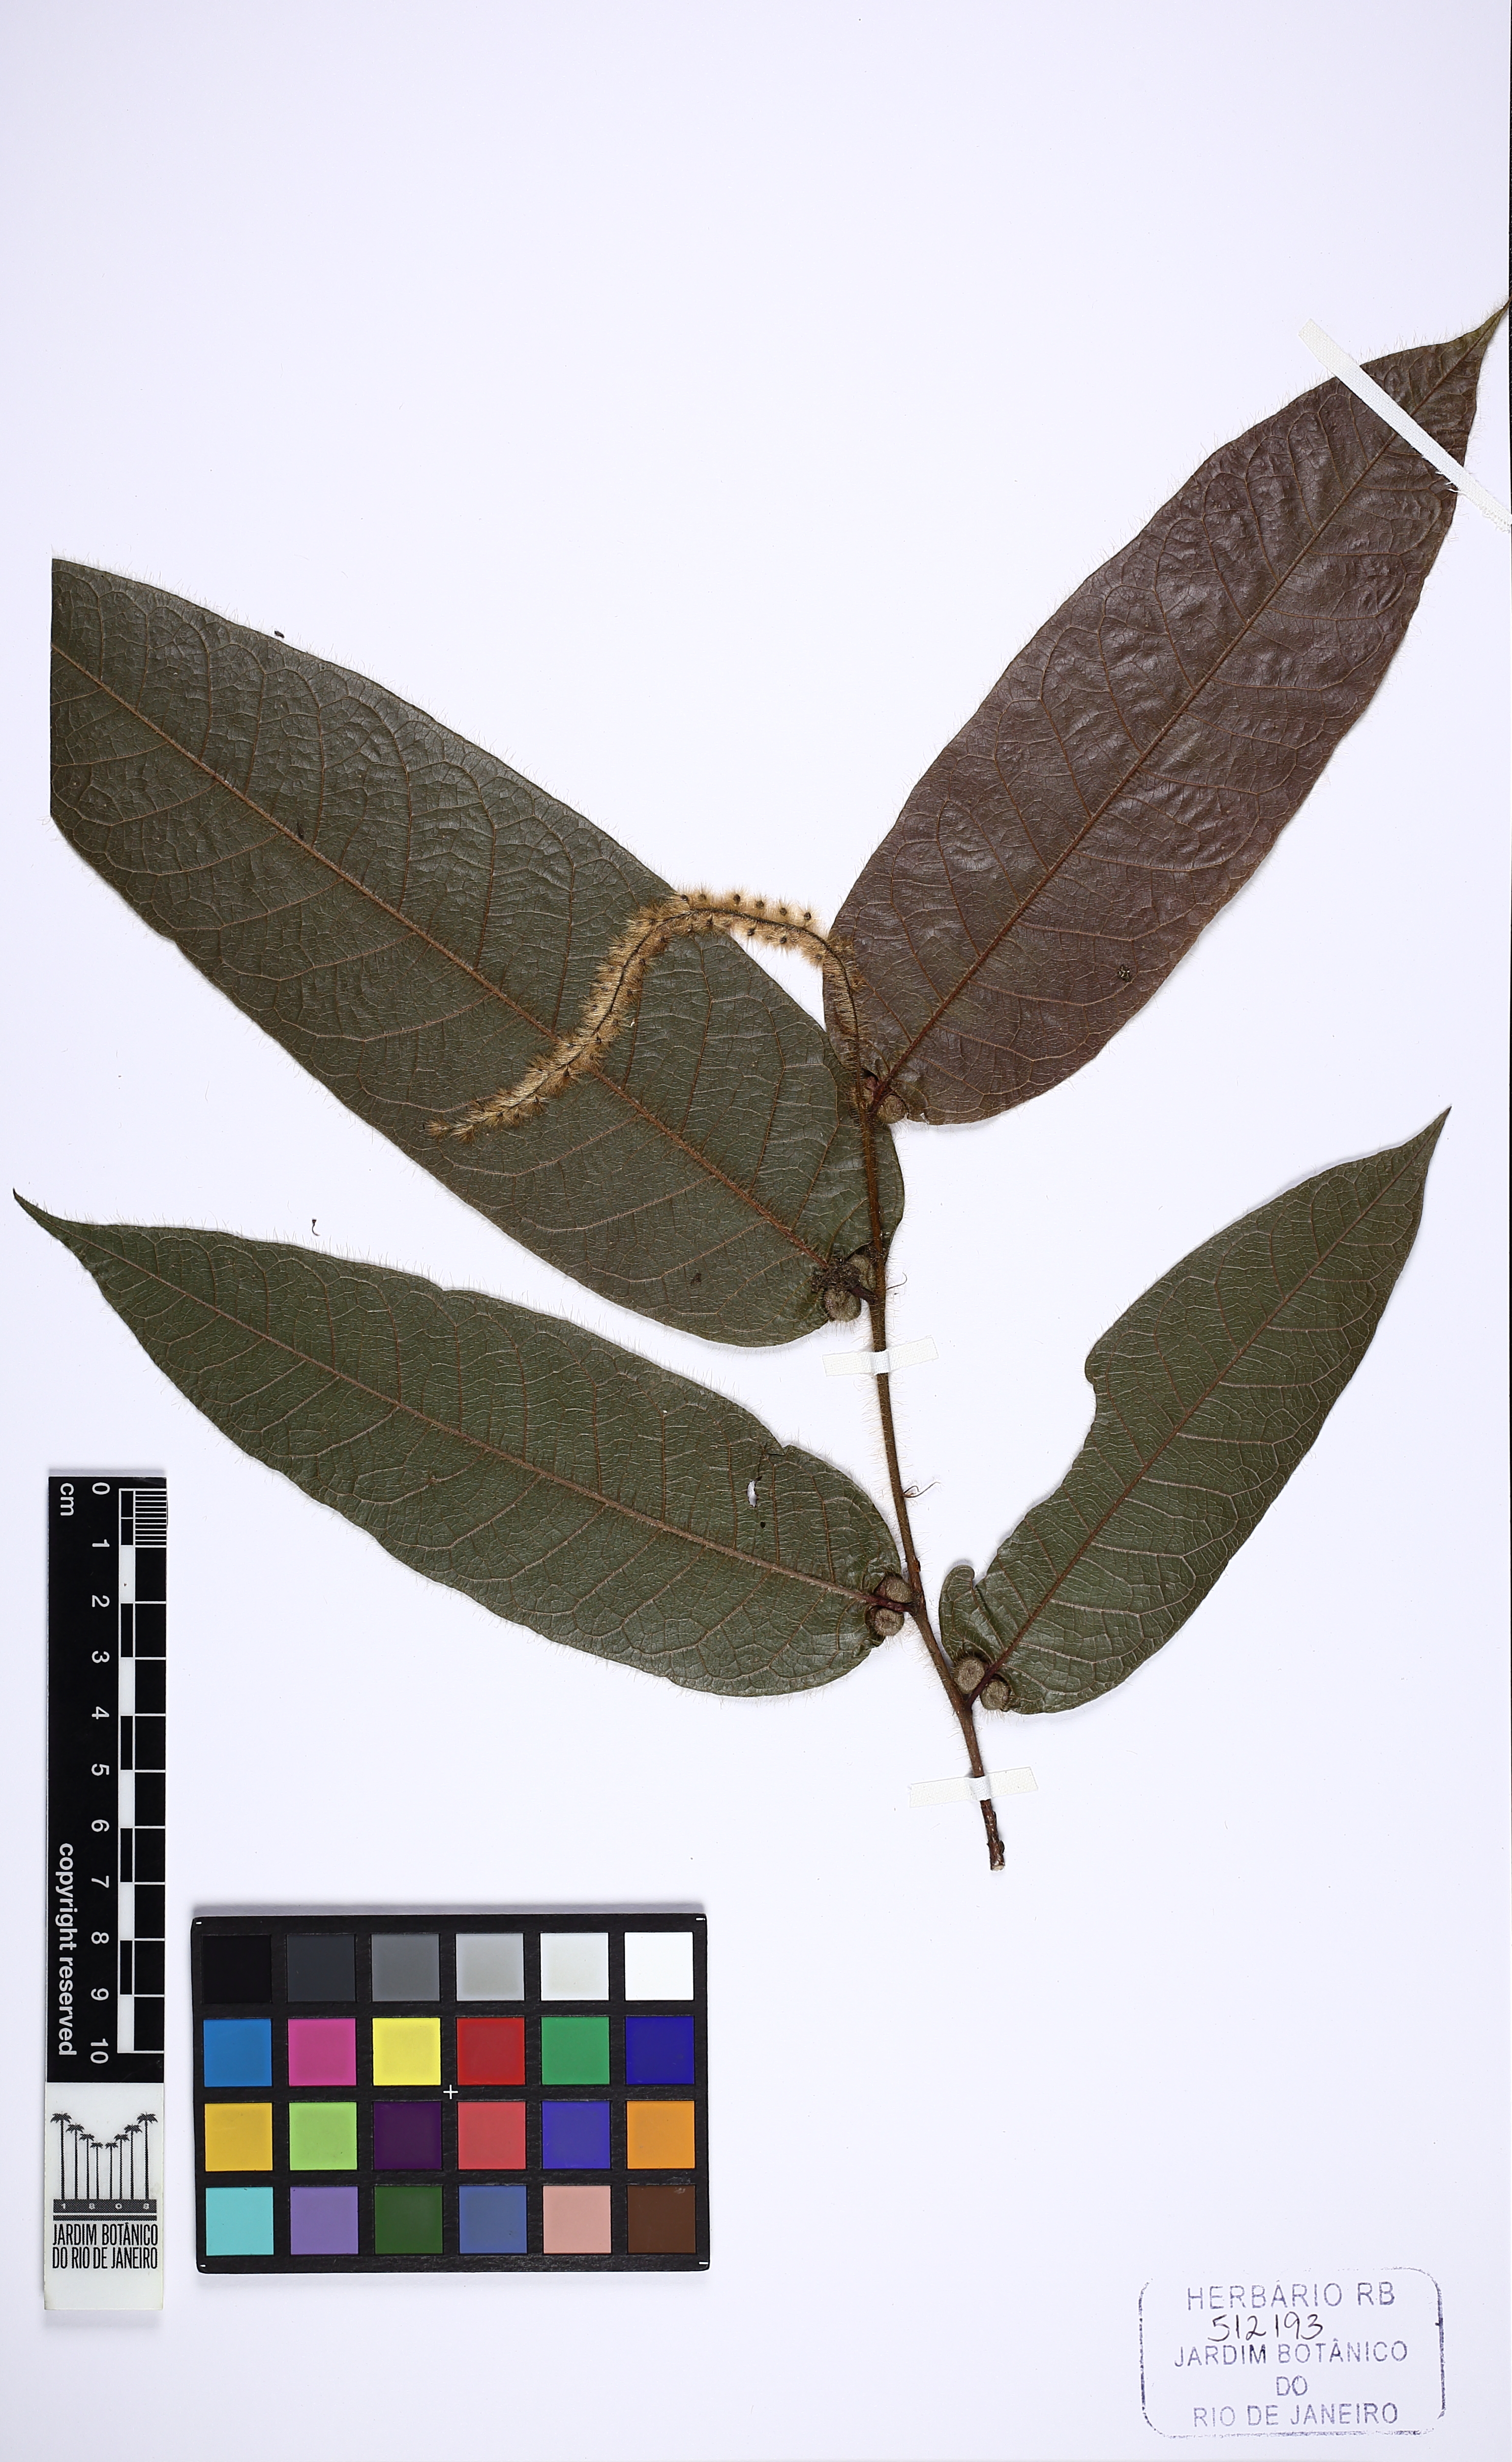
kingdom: Plantae
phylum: Tracheophyta
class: Magnoliopsida
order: Malpighiales
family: Chrysobalanaceae
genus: Hirtella
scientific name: Hirtella guainiae
